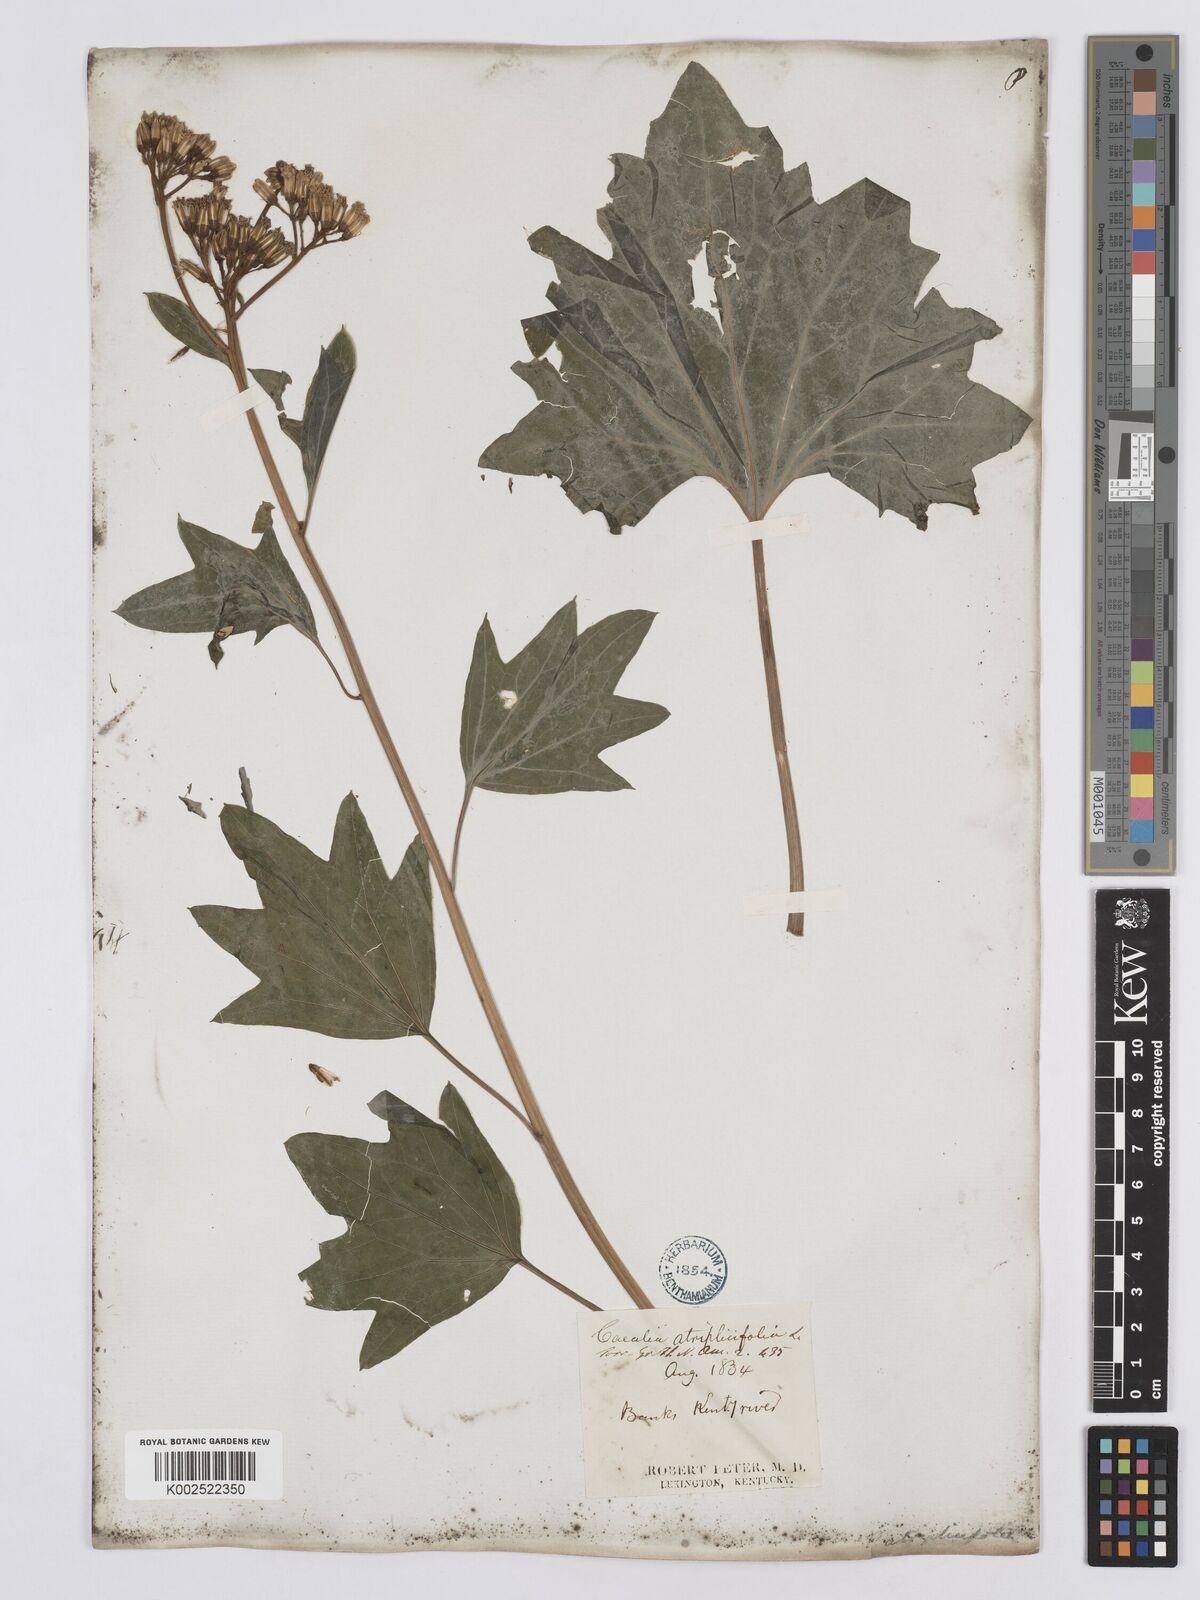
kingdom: Plantae
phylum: Tracheophyta
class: Magnoliopsida
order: Asterales
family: Asteraceae
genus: Arnoglossum
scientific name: Arnoglossum atriplicifolium
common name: Pale indian-plantain
